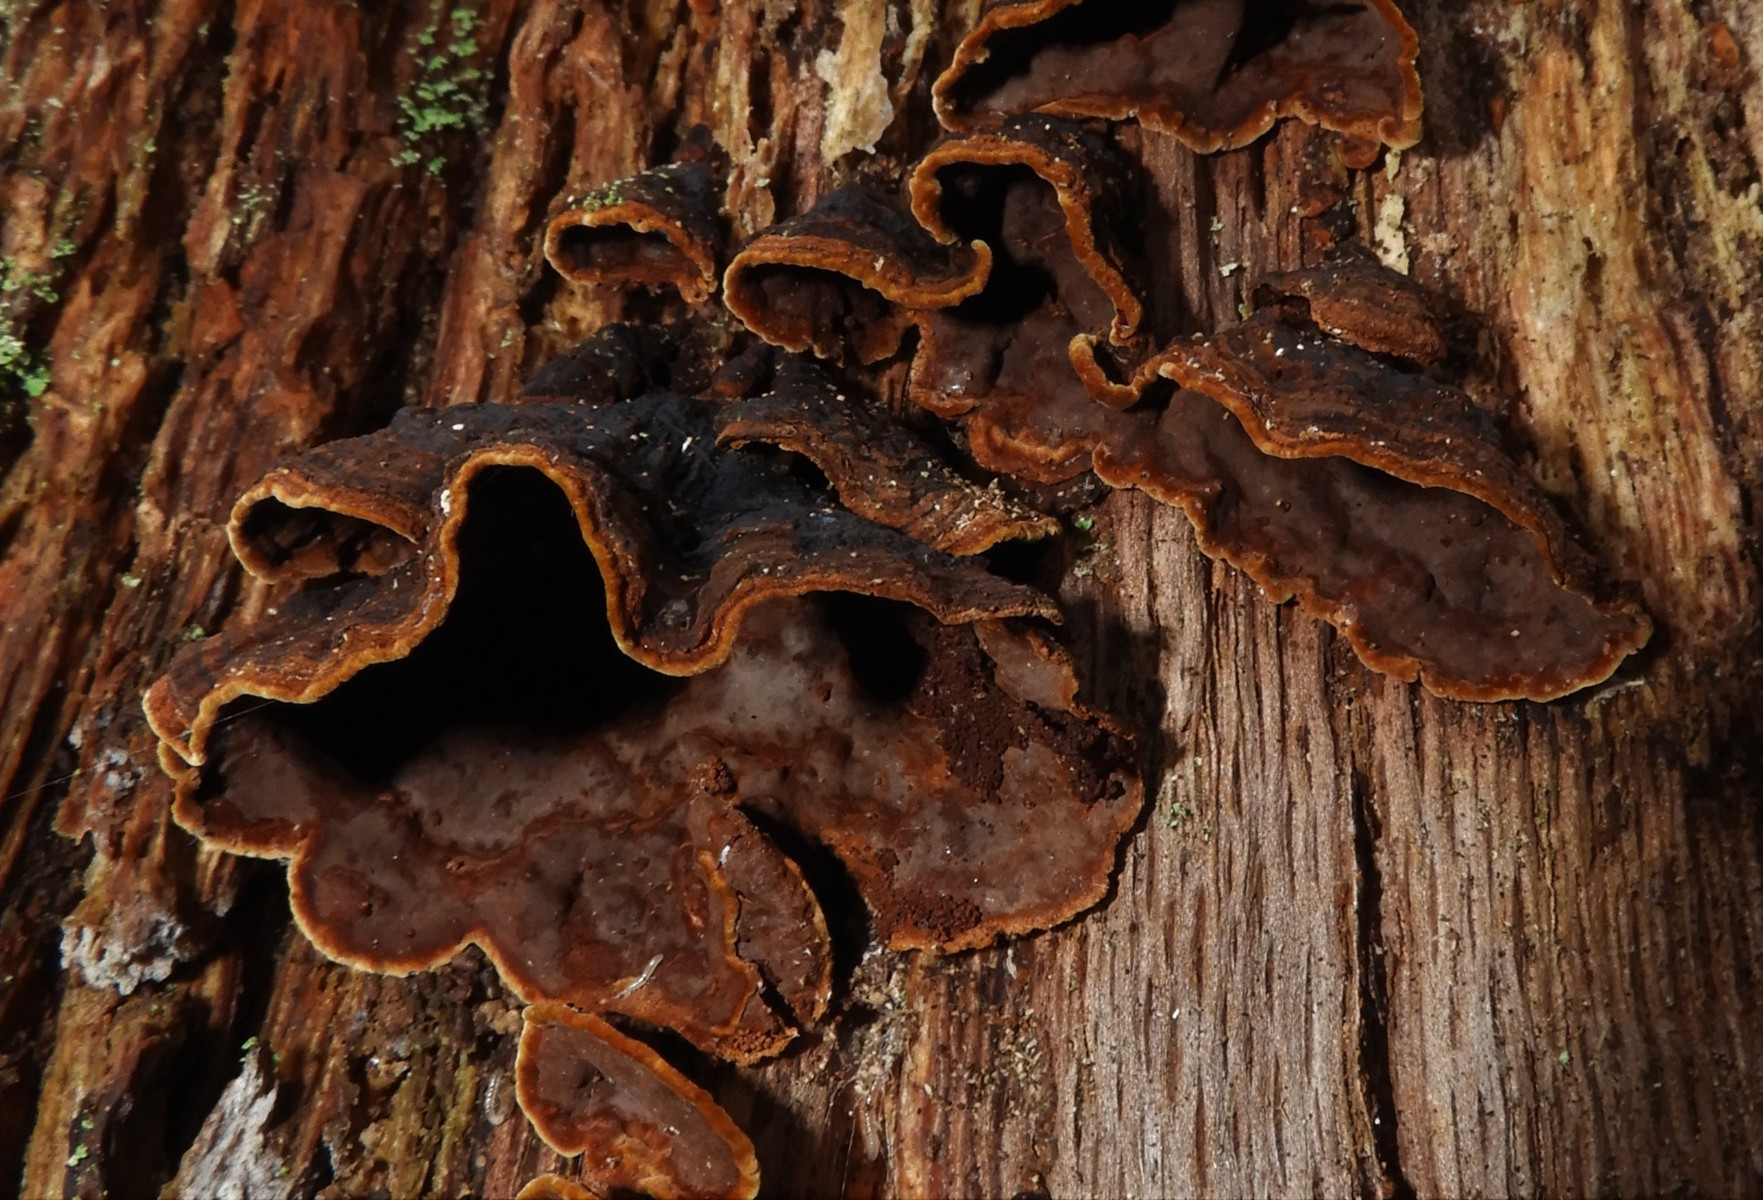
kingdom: Fungi
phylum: Basidiomycota
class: Agaricomycetes
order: Hymenochaetales
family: Hymenochaetaceae
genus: Hymenochaete
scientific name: Hymenochaete rubiginosa
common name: stiv ruslædersvamp
